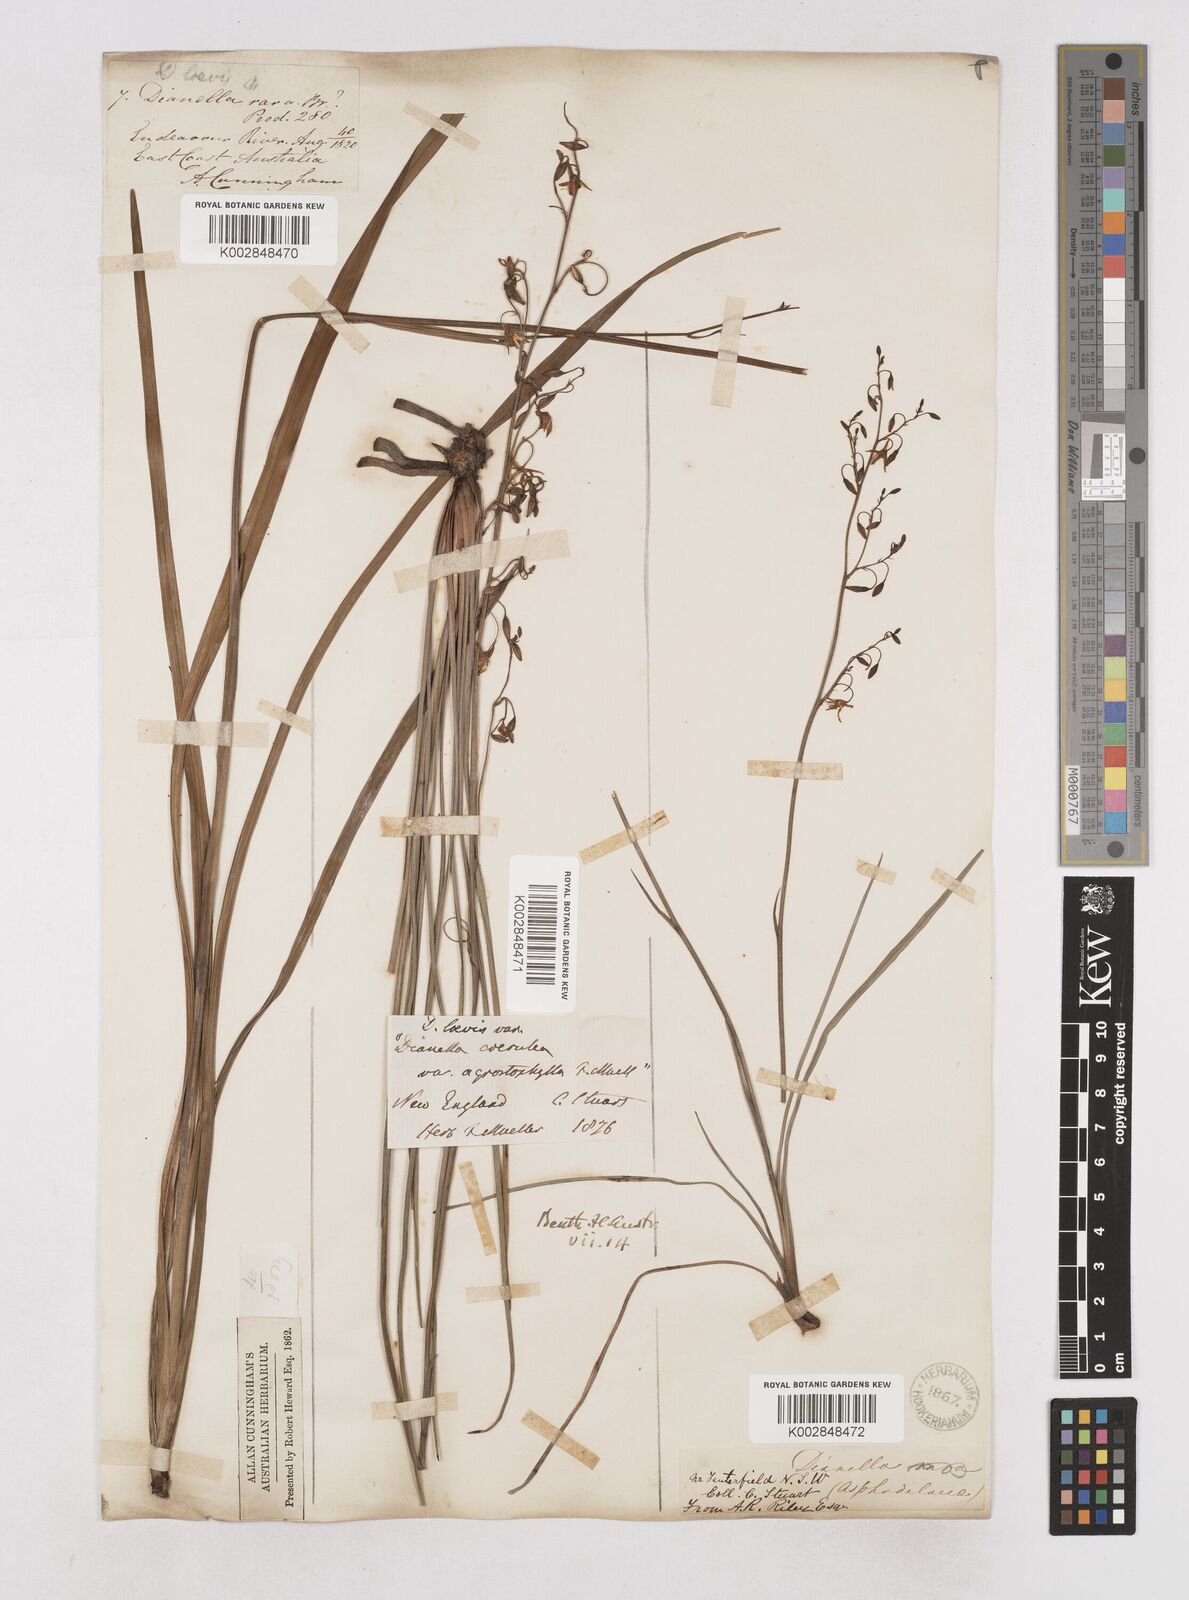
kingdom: Plantae
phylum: Tracheophyta
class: Liliopsida
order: Asparagales
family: Asphodelaceae
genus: Dianella
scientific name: Dianella longifolia
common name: Blue flax-lily
